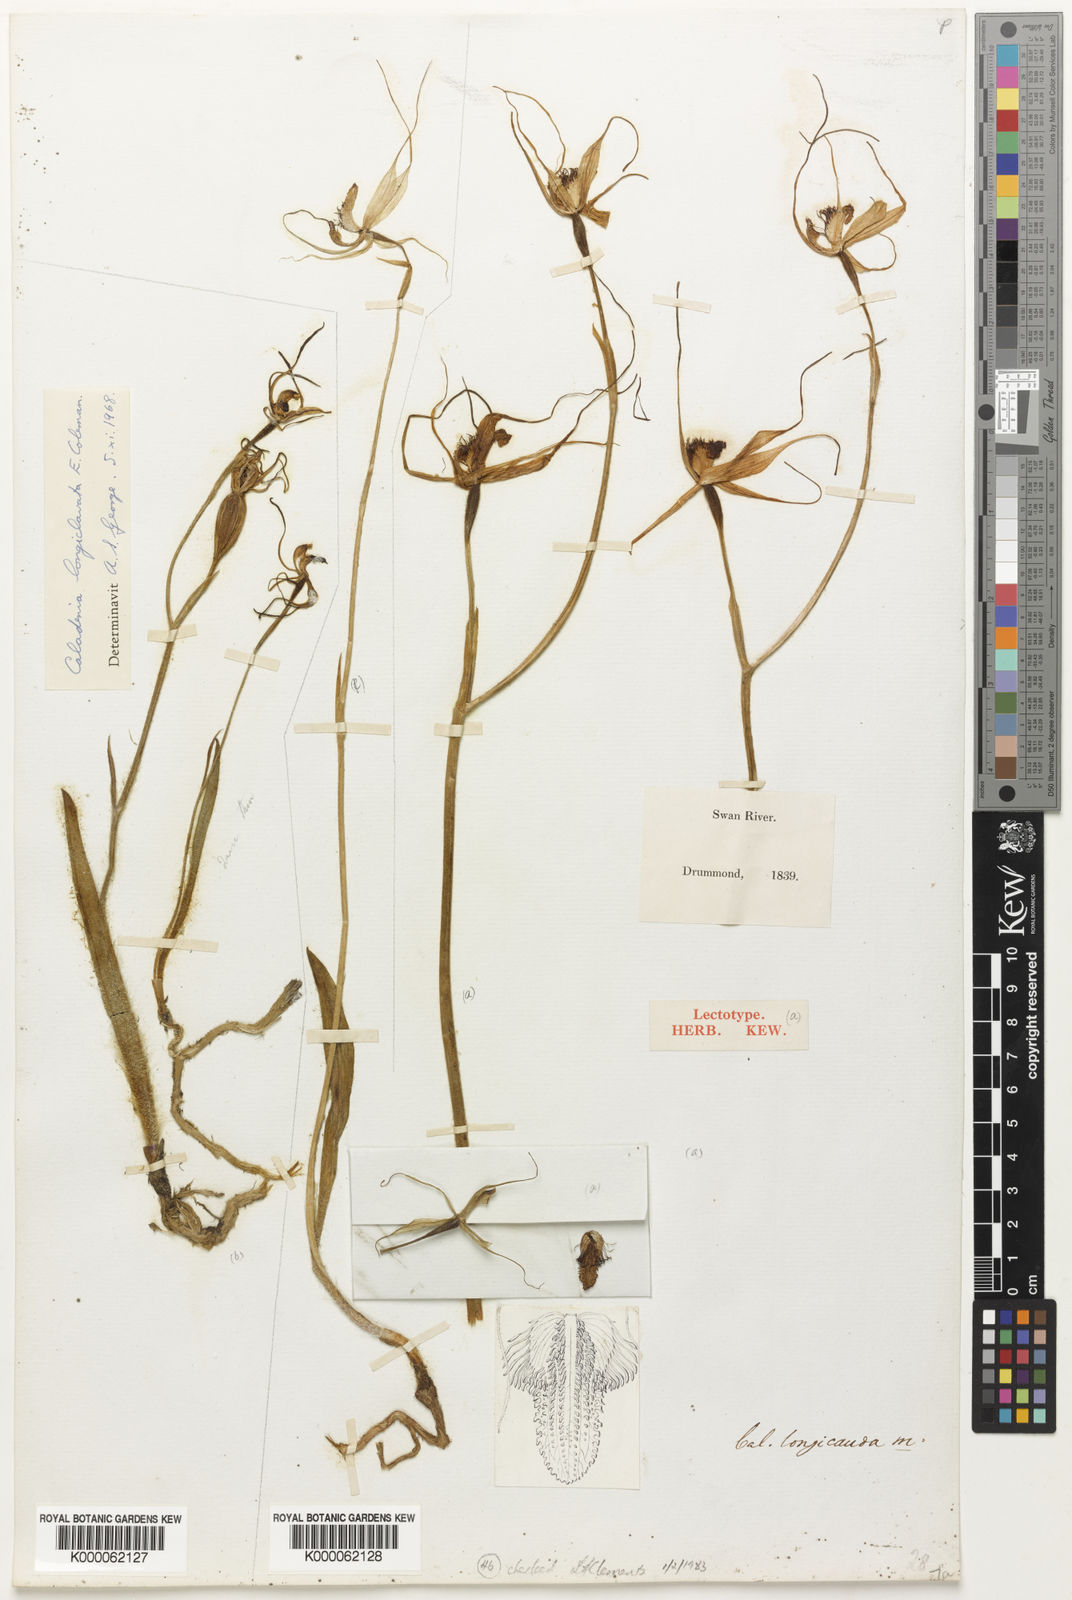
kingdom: Plantae
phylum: Tracheophyta
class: Liliopsida
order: Asparagales
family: Orchidaceae
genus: Caladenia
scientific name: Caladenia longicauda
